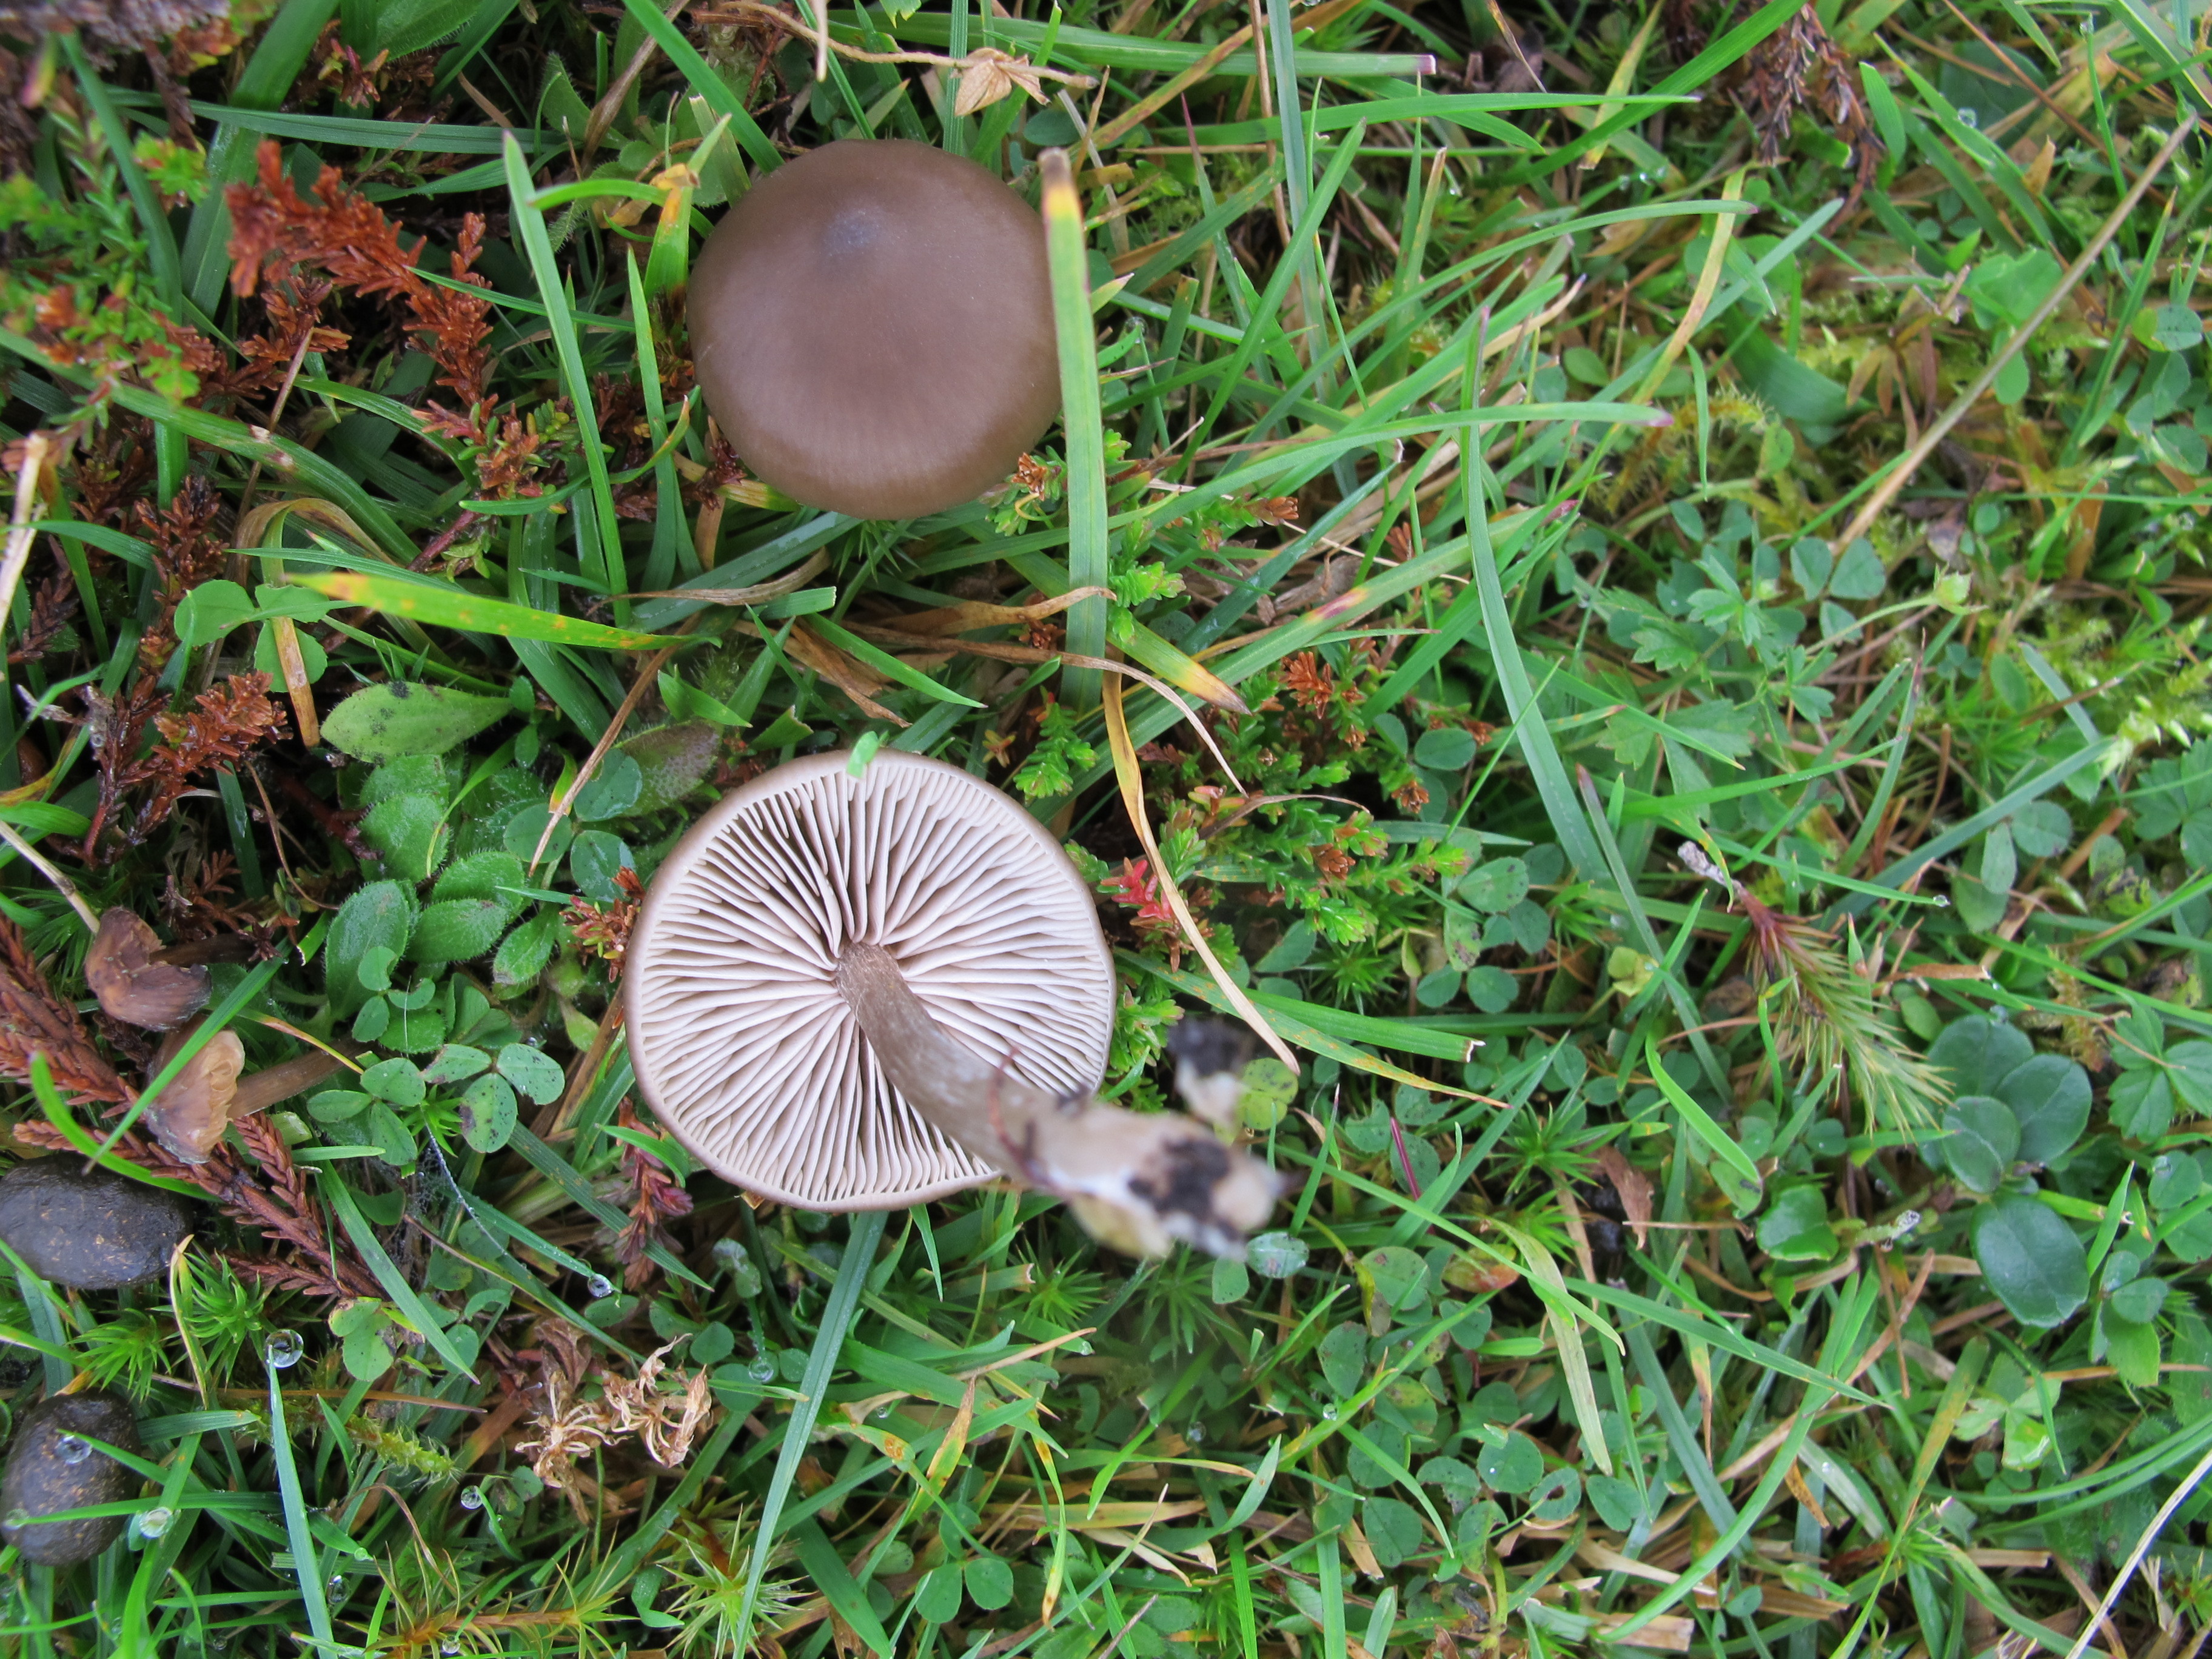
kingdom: Fungi
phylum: Basidiomycota
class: Agaricomycetes
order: Agaricales
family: Entolomataceae
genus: Entoloma
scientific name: Entoloma sericeum
